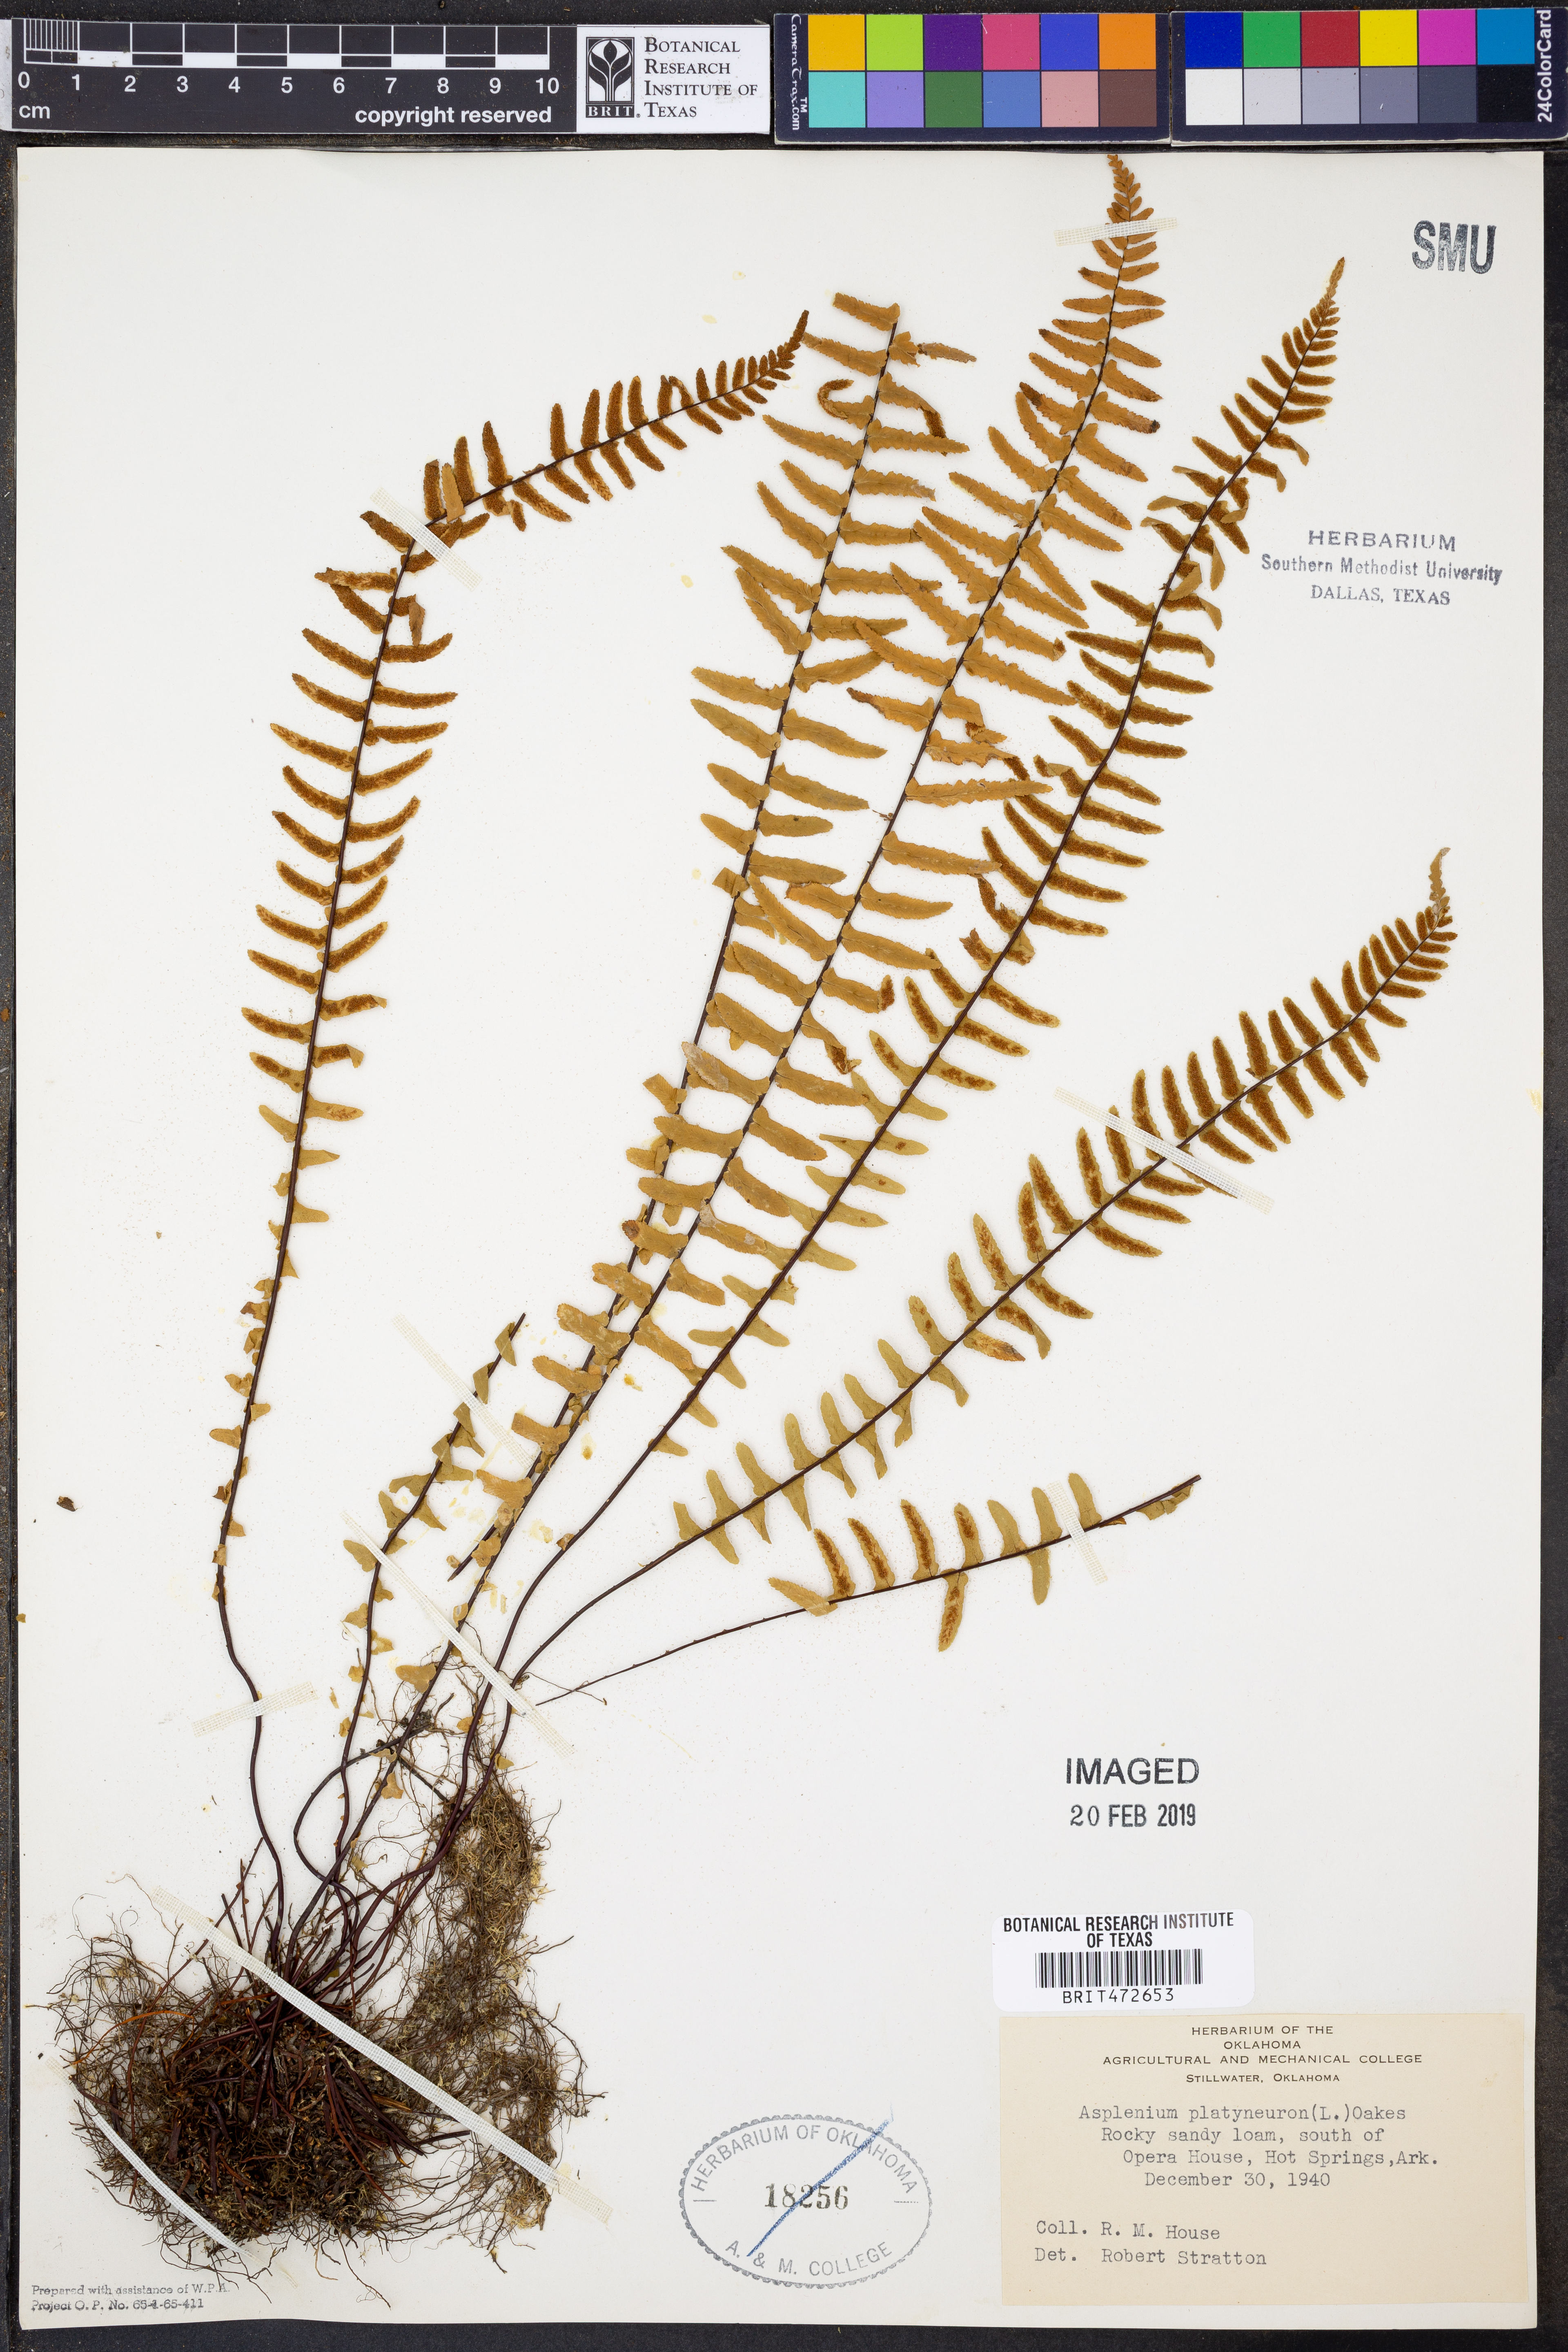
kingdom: Plantae
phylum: Tracheophyta
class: Polypodiopsida
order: Polypodiales
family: Aspleniaceae
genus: Asplenium
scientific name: Asplenium platyneuron
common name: Ebony spleenwort
